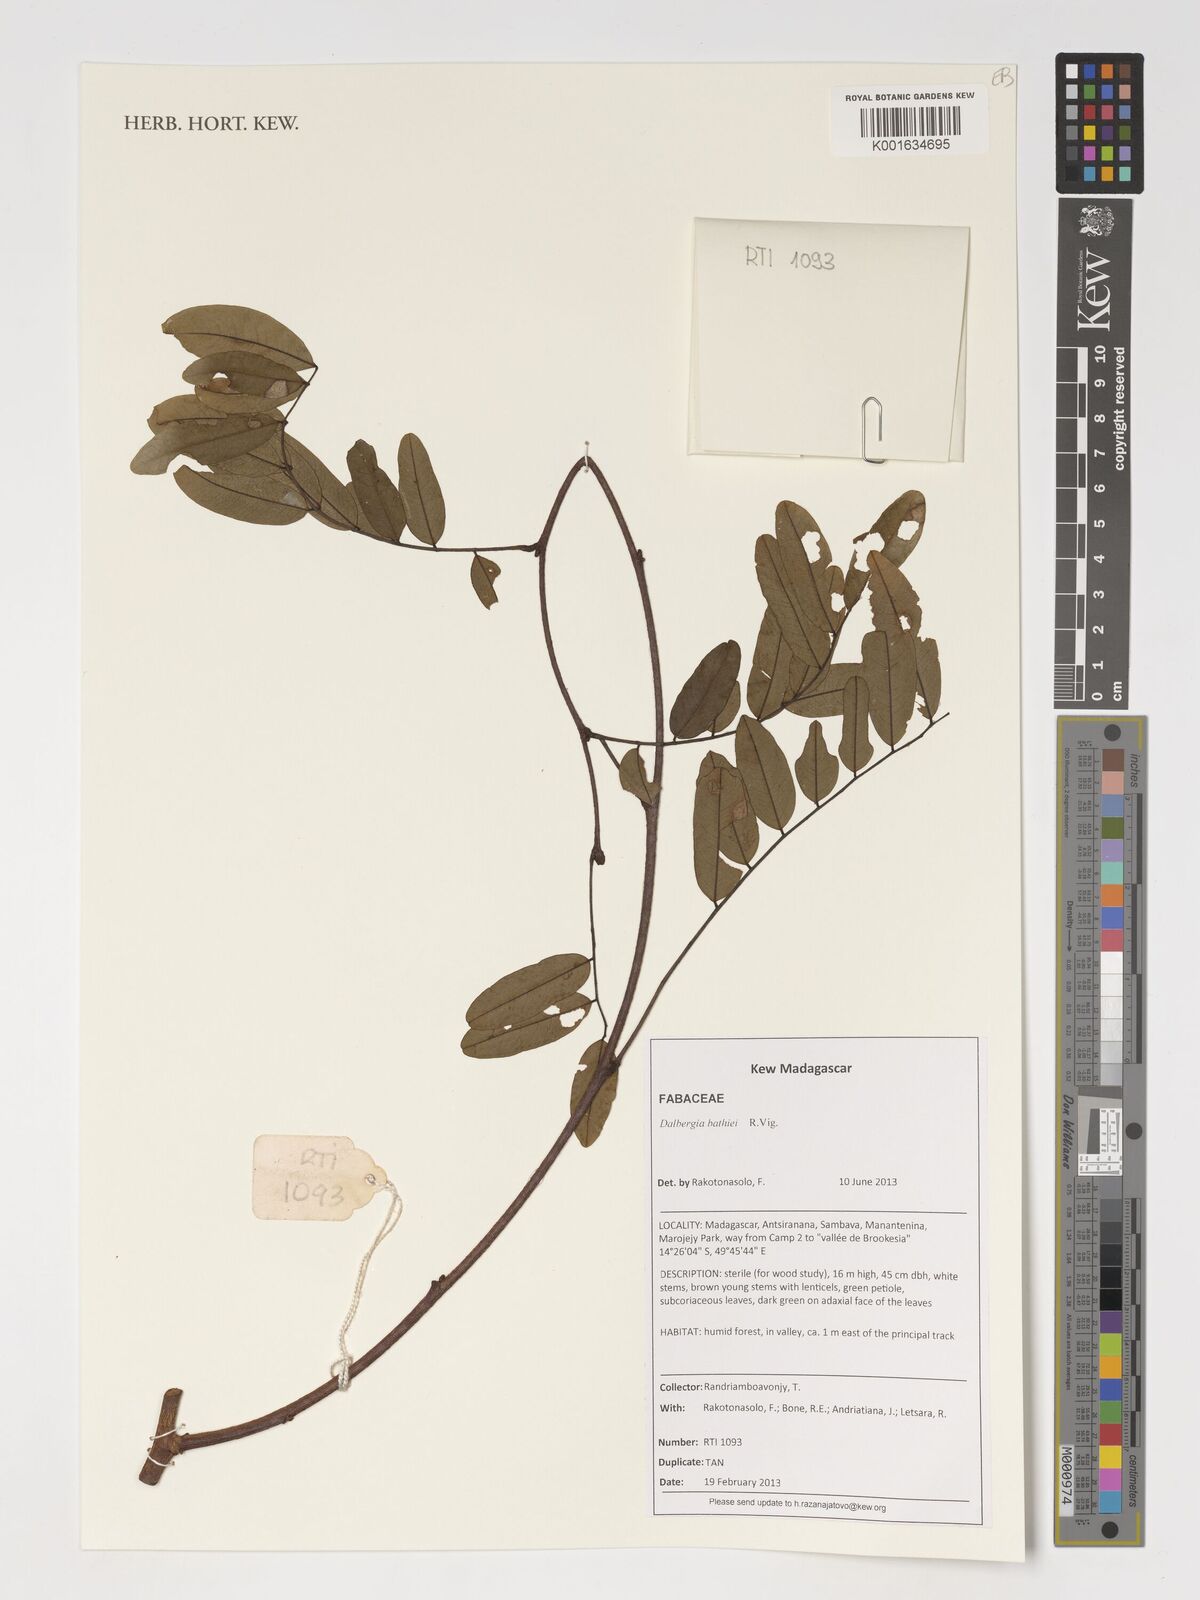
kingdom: Plantae
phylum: Tracheophyta
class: Magnoliopsida
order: Fabales
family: Fabaceae
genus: Dalbergia
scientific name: Dalbergia bathiei
